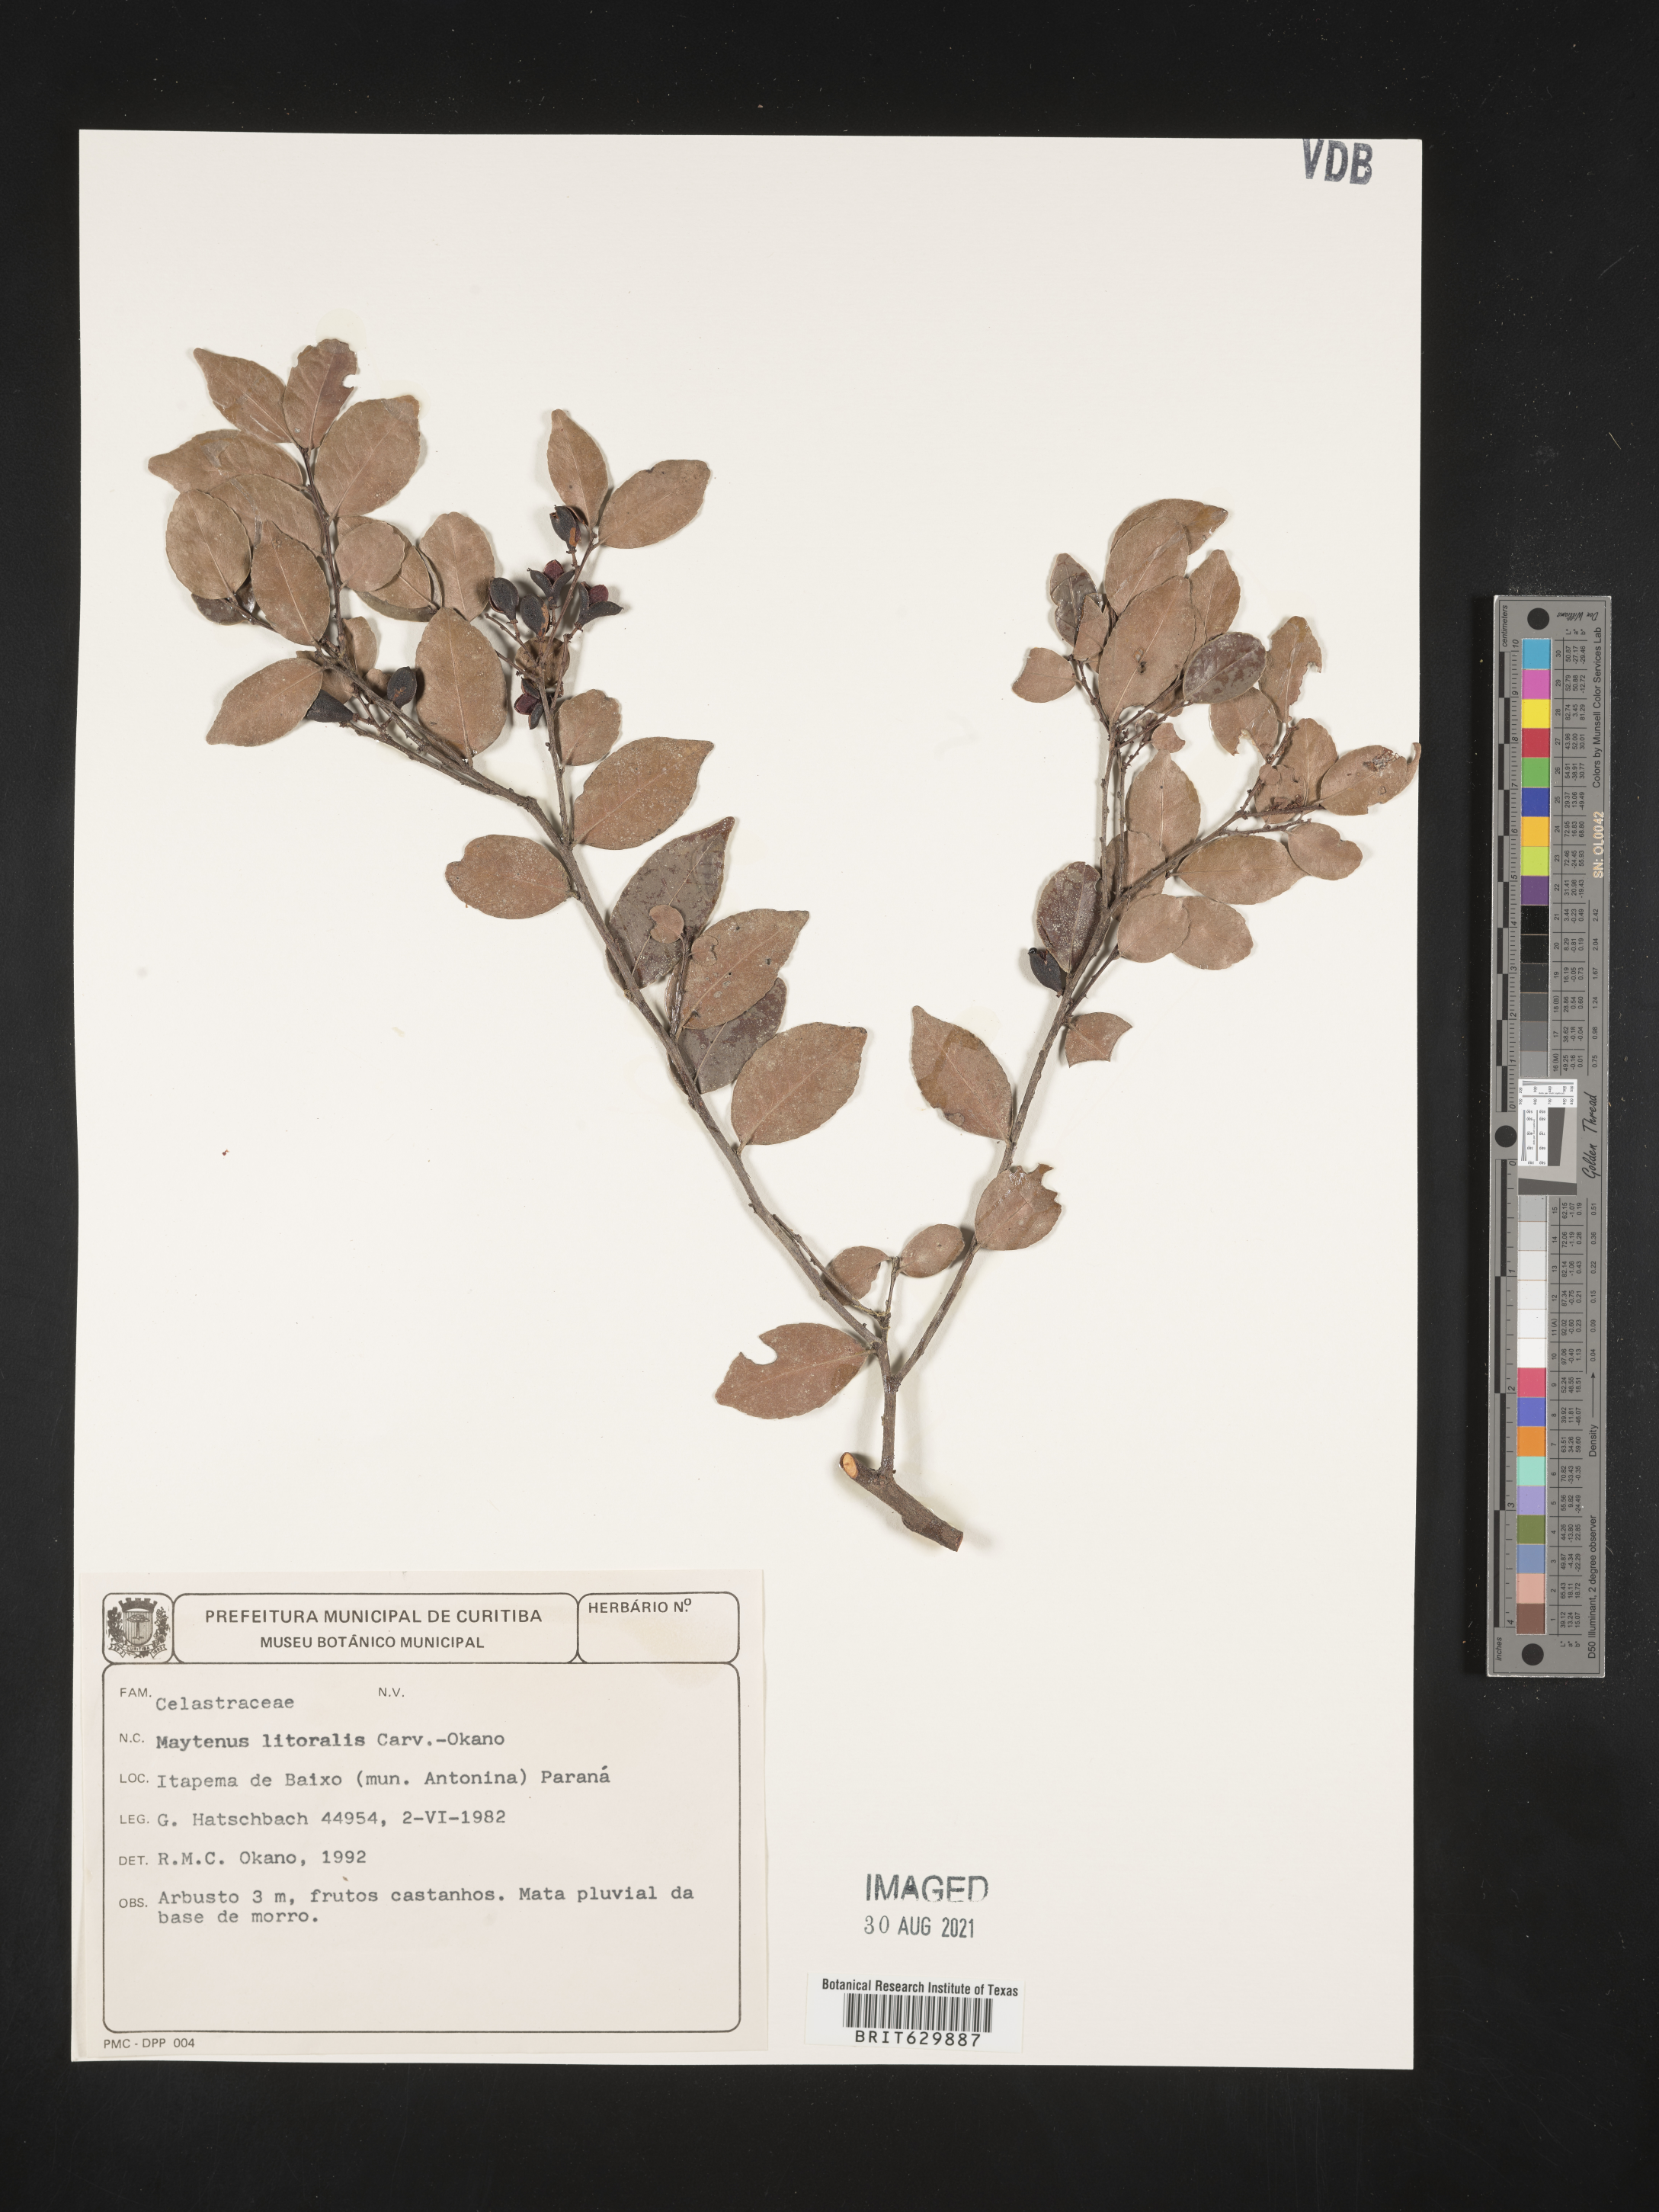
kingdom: Plantae
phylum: Tracheophyta
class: Magnoliopsida
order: Celastrales
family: Celastraceae
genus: Monteverdia
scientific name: Monteverdia littoralis
